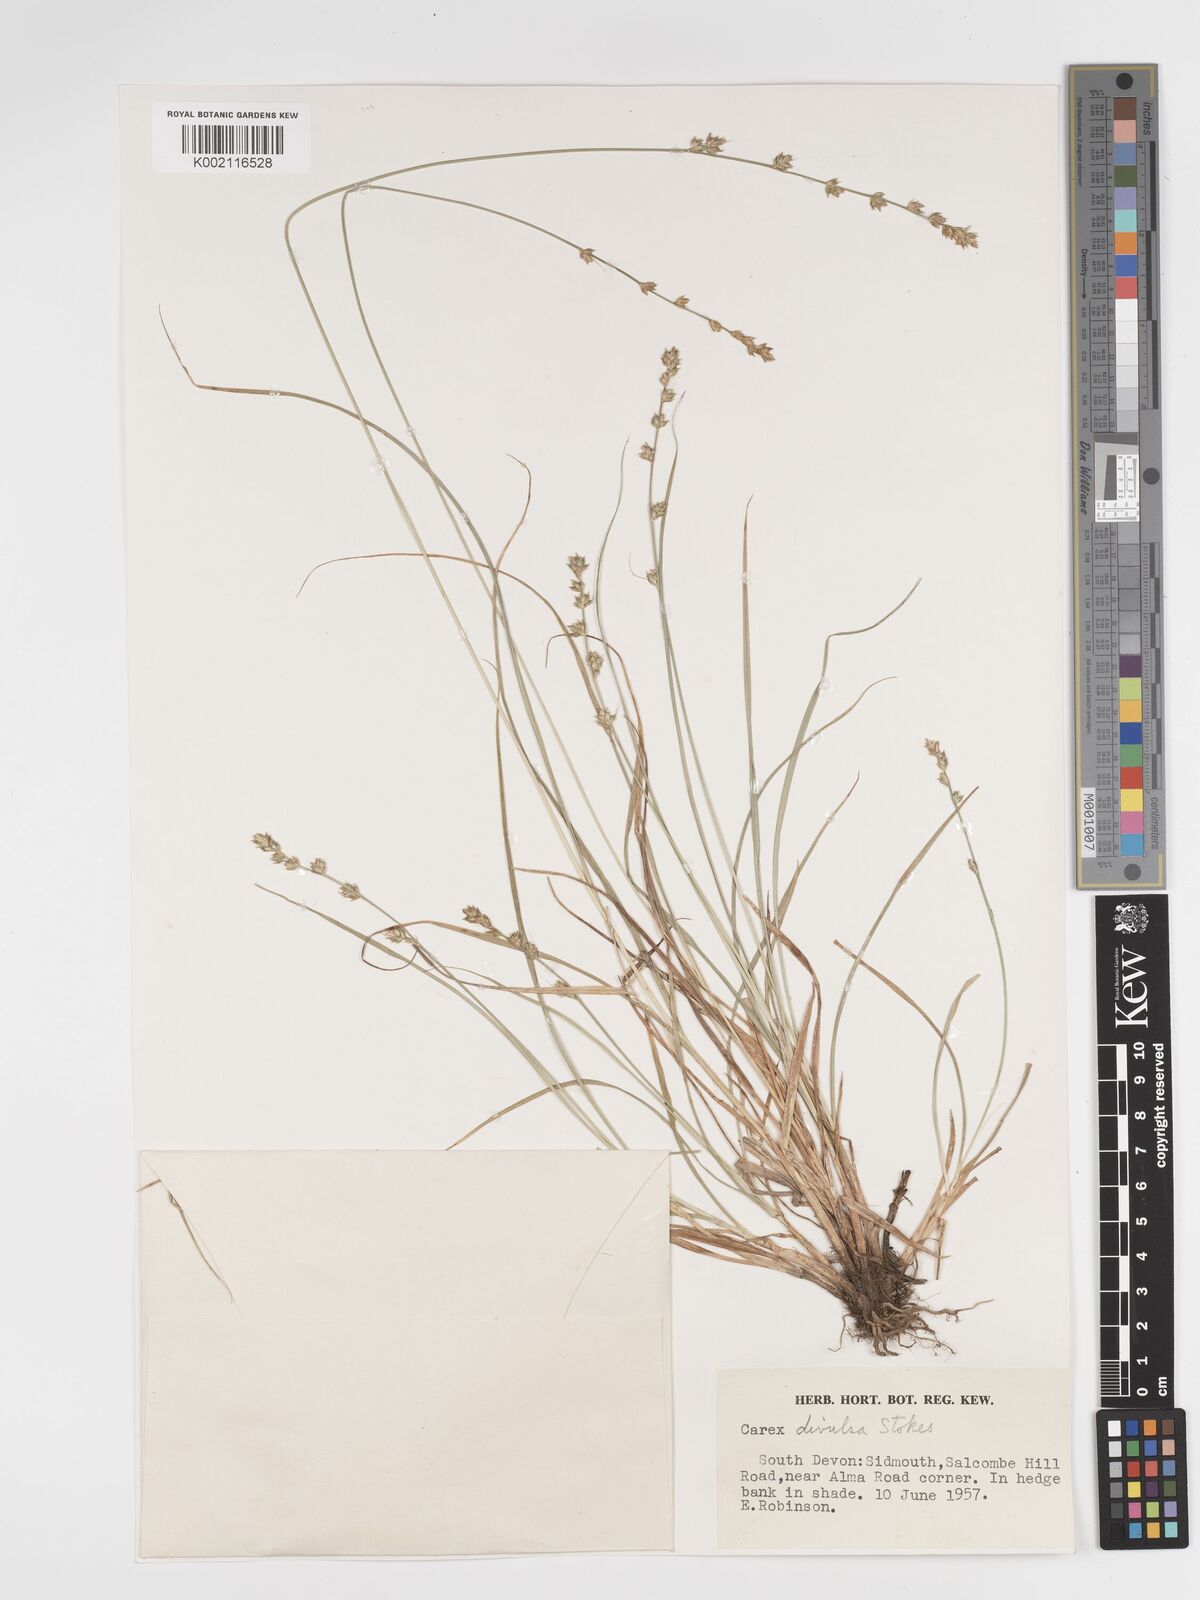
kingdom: Plantae
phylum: Tracheophyta
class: Liliopsida
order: Poales
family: Cyperaceae
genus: Carex
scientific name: Carex divulsa
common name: Grassland sedge
